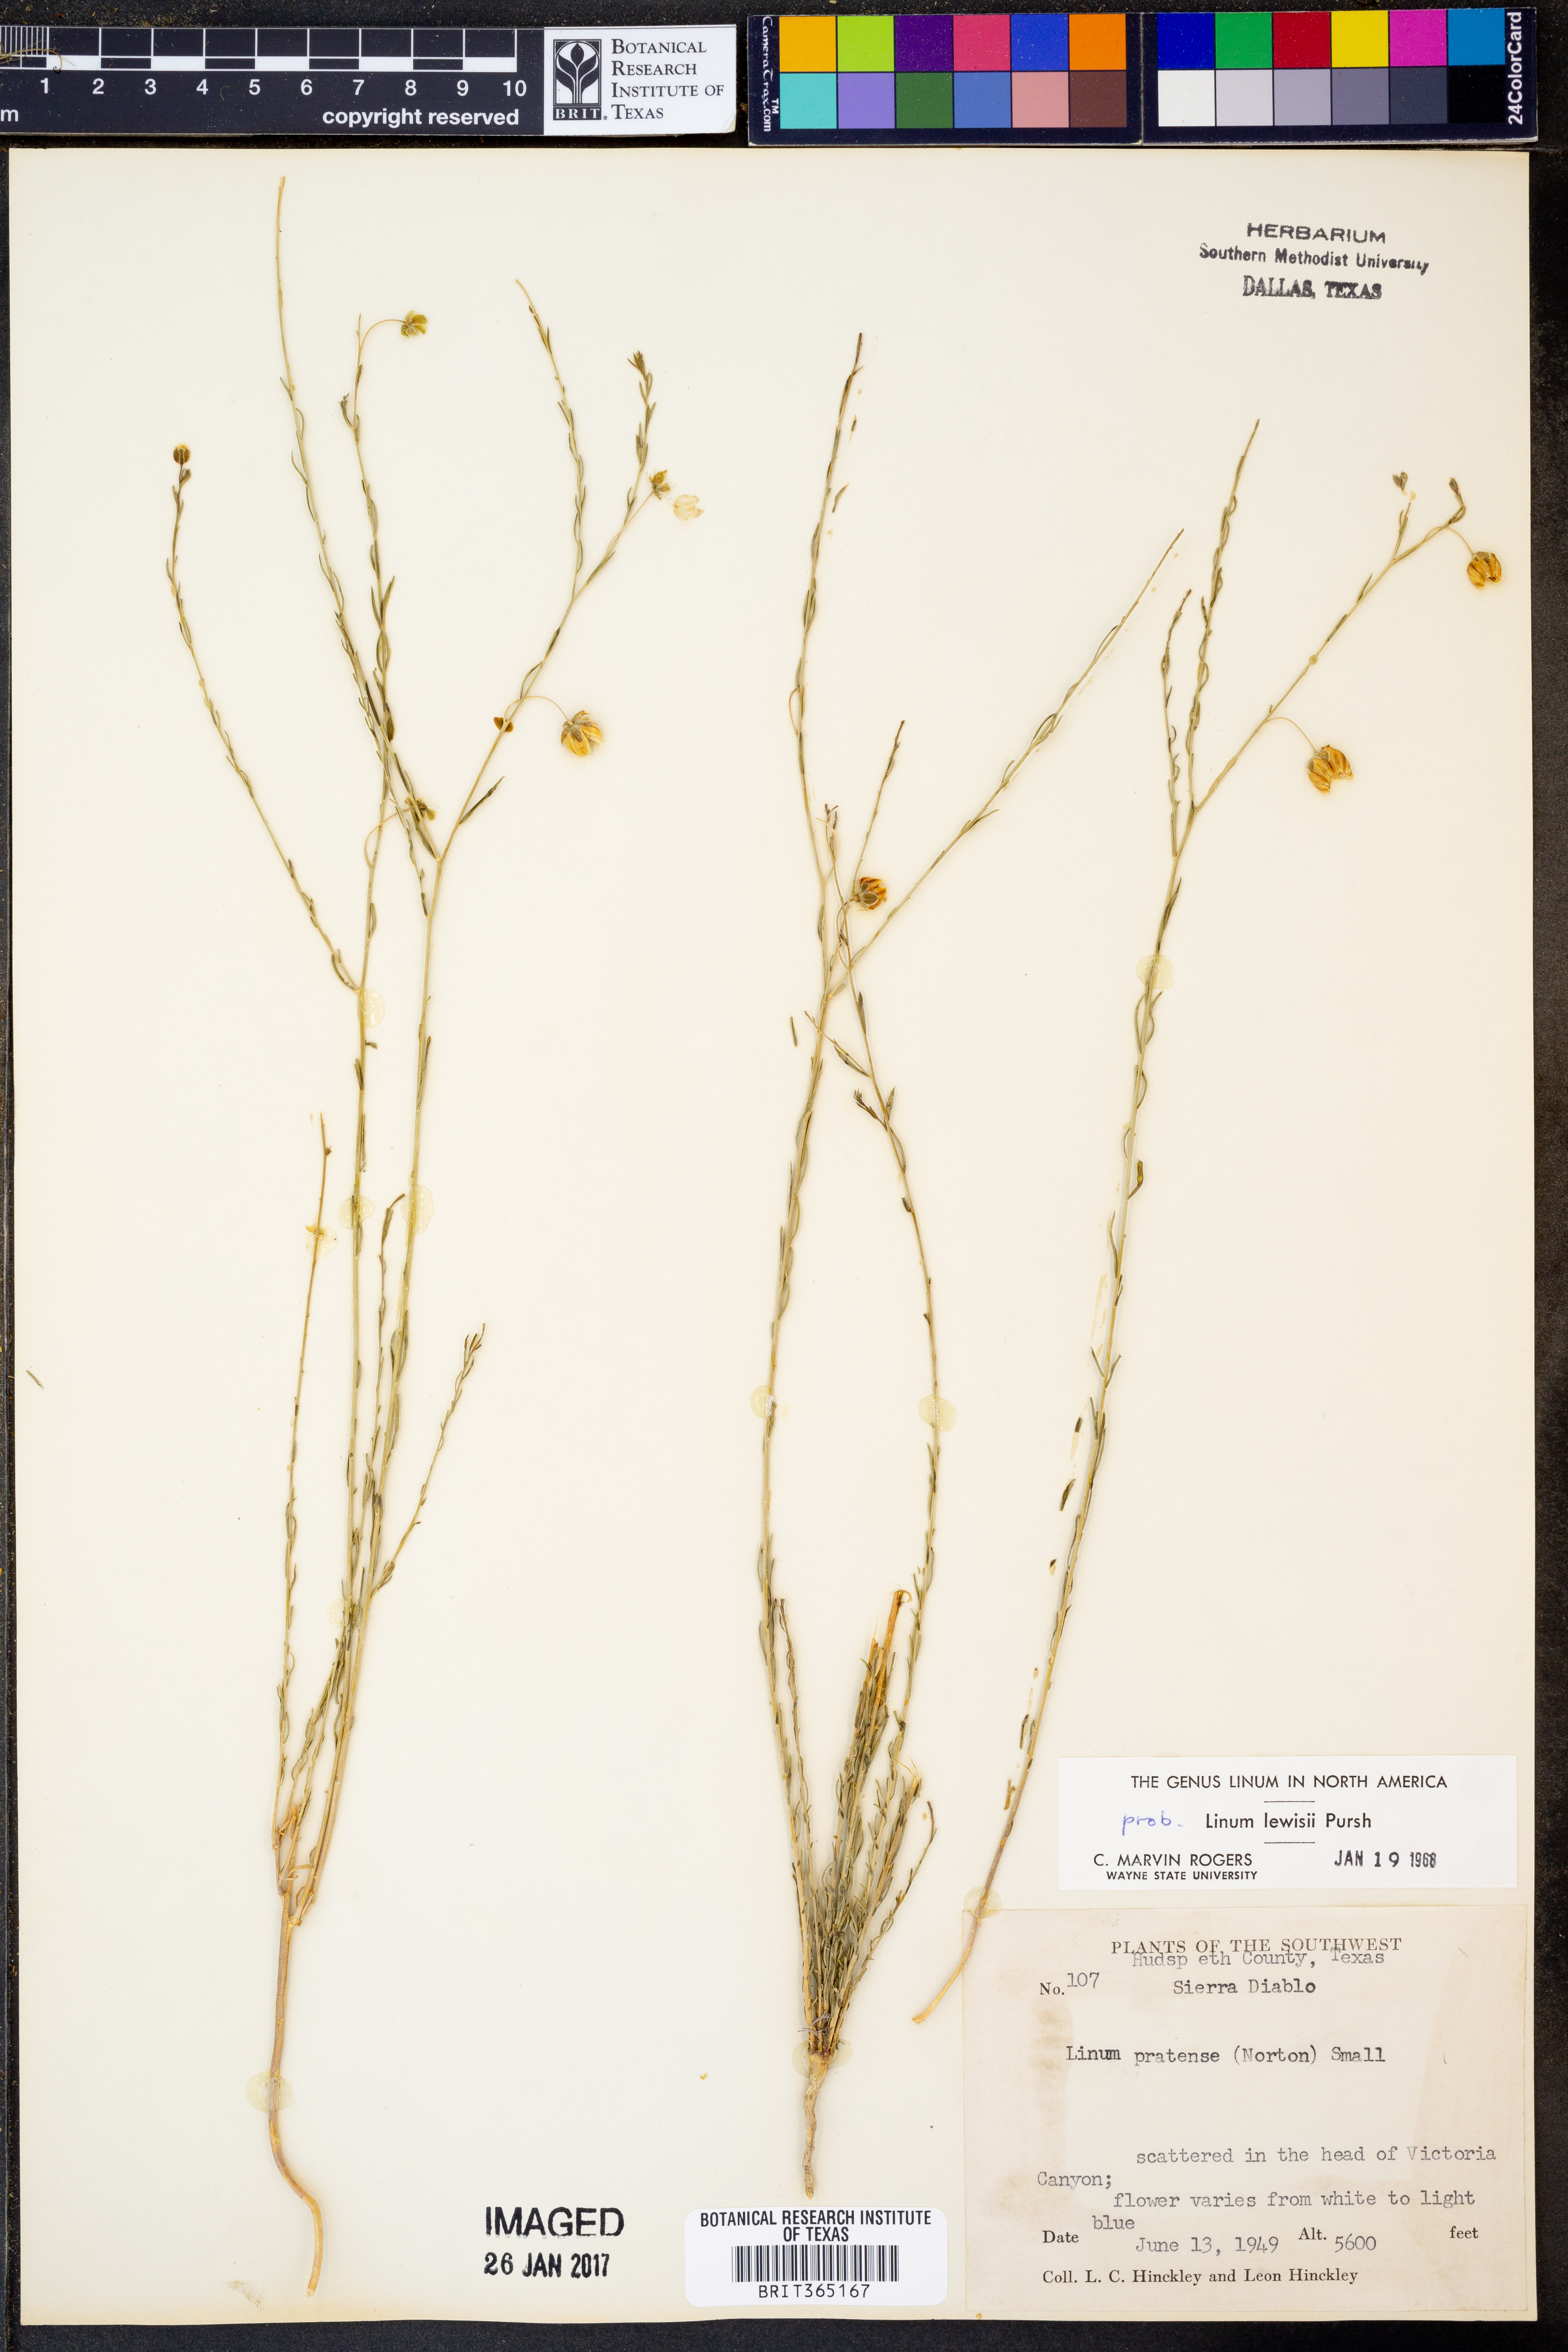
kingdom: Plantae
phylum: Tracheophyta
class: Magnoliopsida
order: Malpighiales
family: Linaceae
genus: Linum
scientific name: Linum lewisii
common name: Prairie flax
